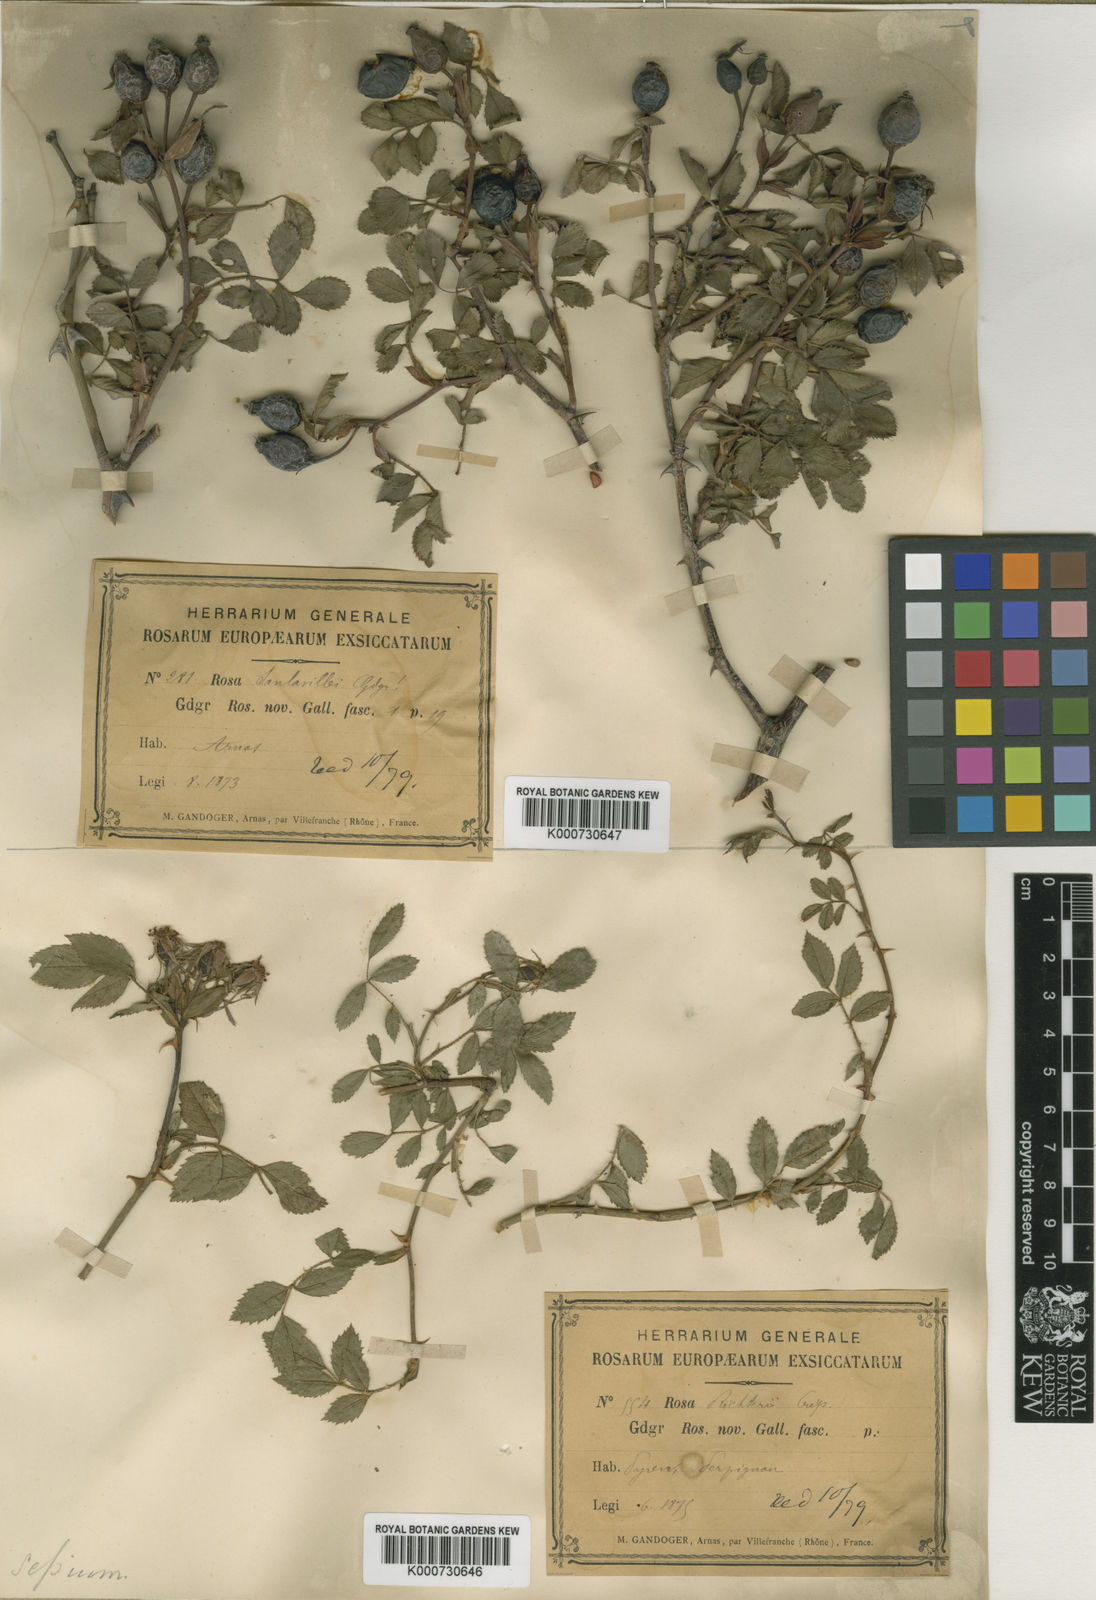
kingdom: Plantae
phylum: Tracheophyta
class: Magnoliopsida
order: Rosales
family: Rosaceae
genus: Rosa
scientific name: Rosa agrestis
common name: Fieldbriar
